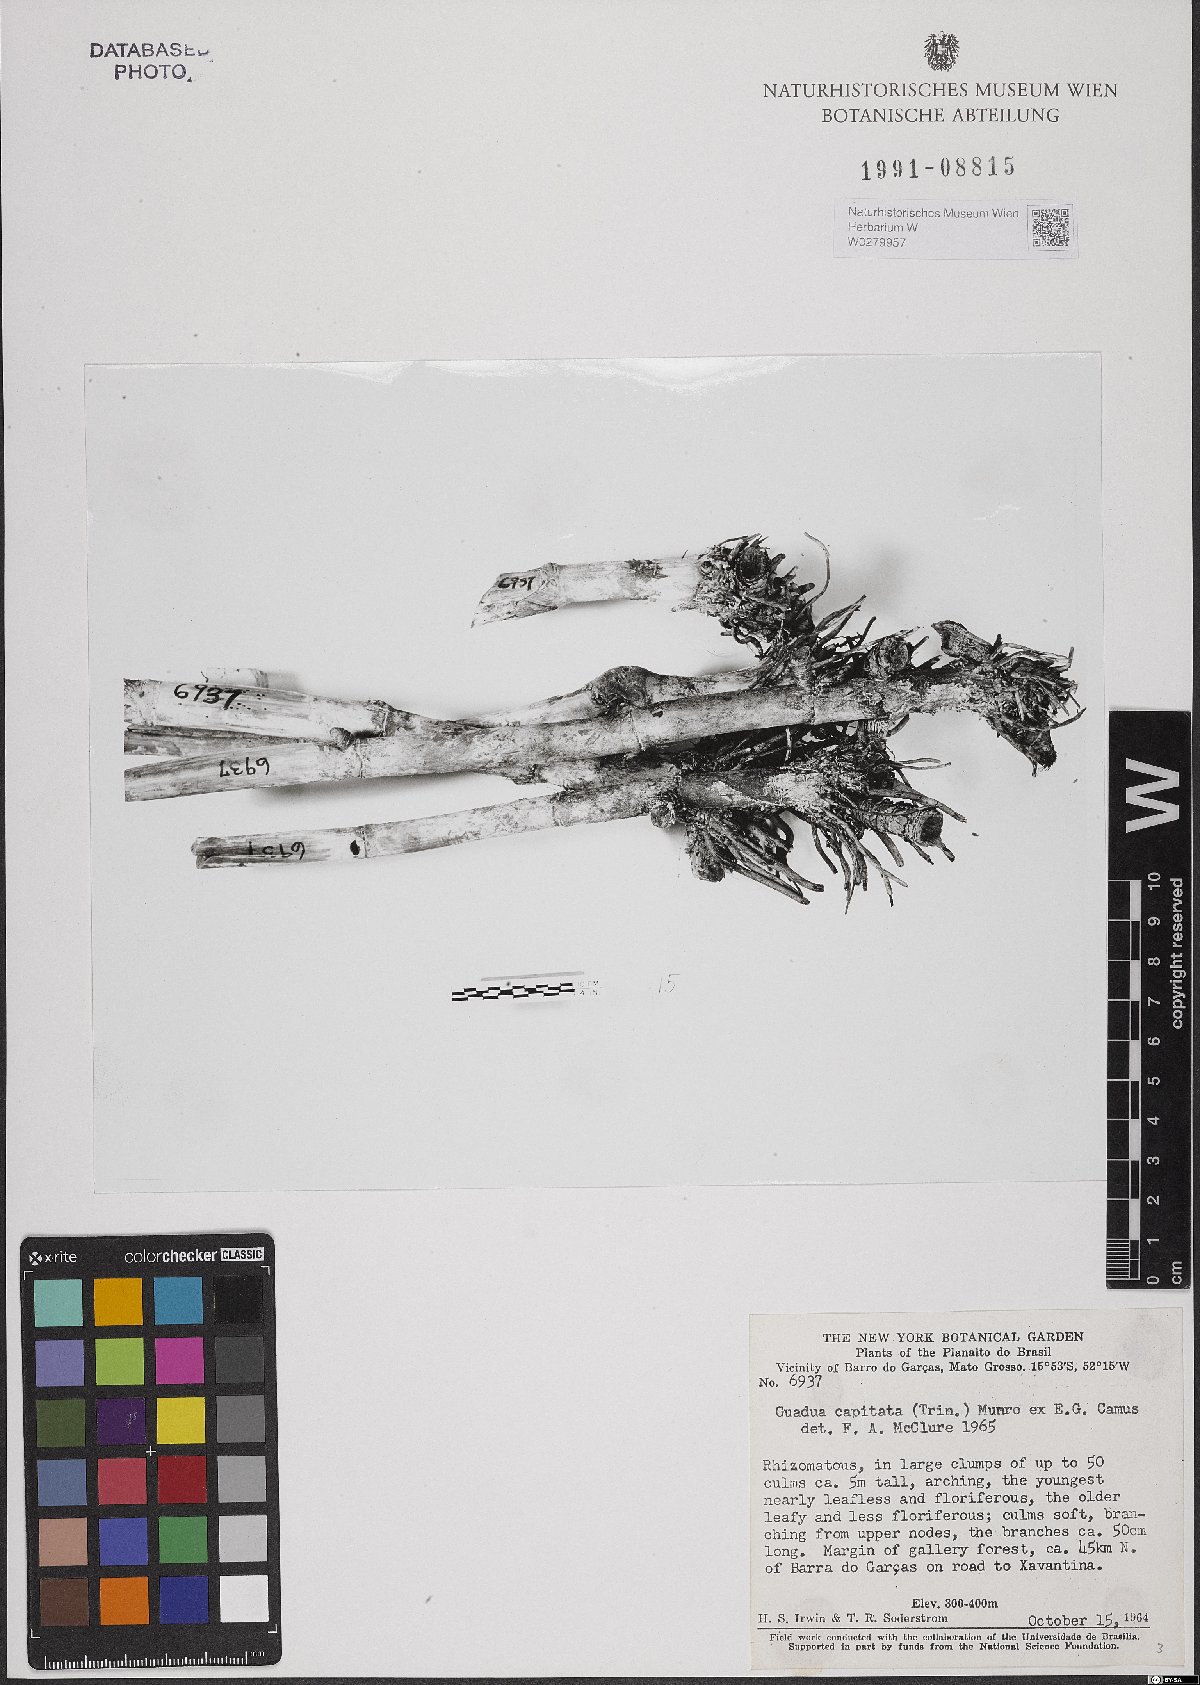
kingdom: Plantae
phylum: Tracheophyta
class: Liliopsida
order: Poales
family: Poaceae
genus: Eremocaulon
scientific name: Eremocaulon capitatum
